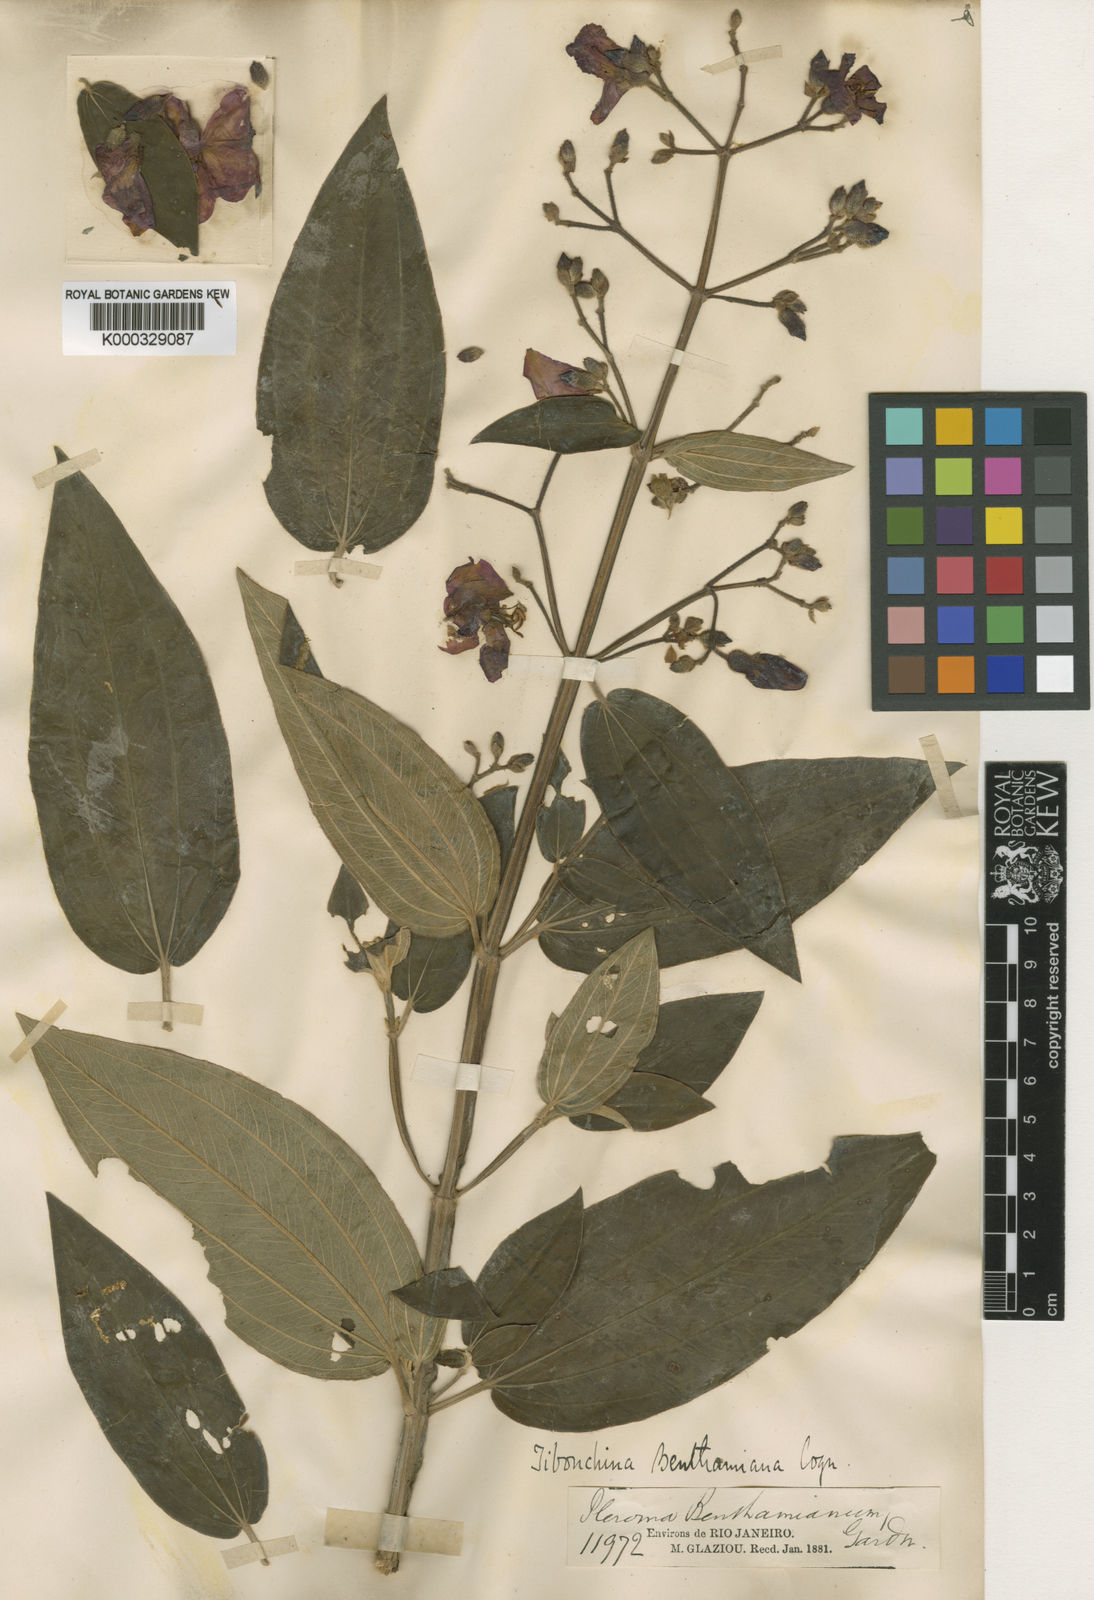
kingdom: Plantae
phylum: Tracheophyta
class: Magnoliopsida
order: Myrtales
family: Melastomataceae
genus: Pleroma
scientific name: Pleroma benthamianum
